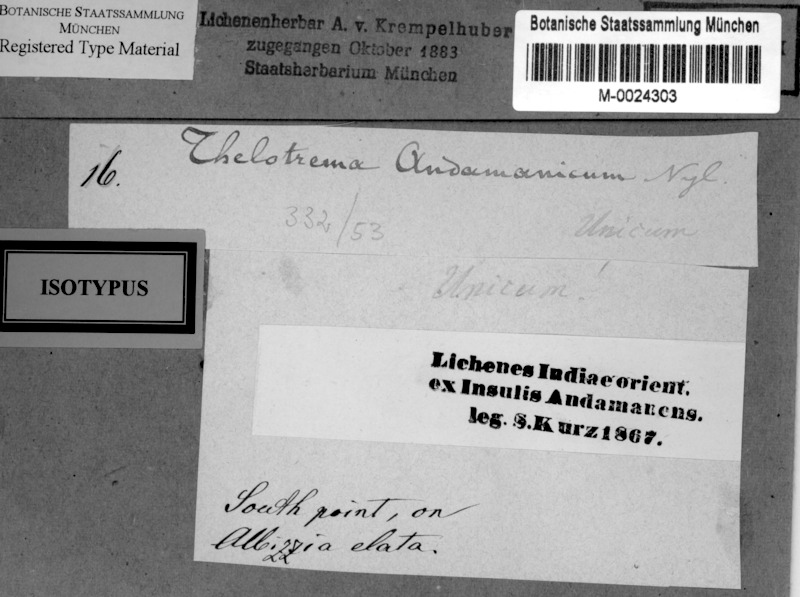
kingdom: Fungi
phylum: Ascomycota
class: Lecanoromycetes
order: Ostropales
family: Graphidaceae
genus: Ocellularia
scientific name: Ocellularia andamanica
